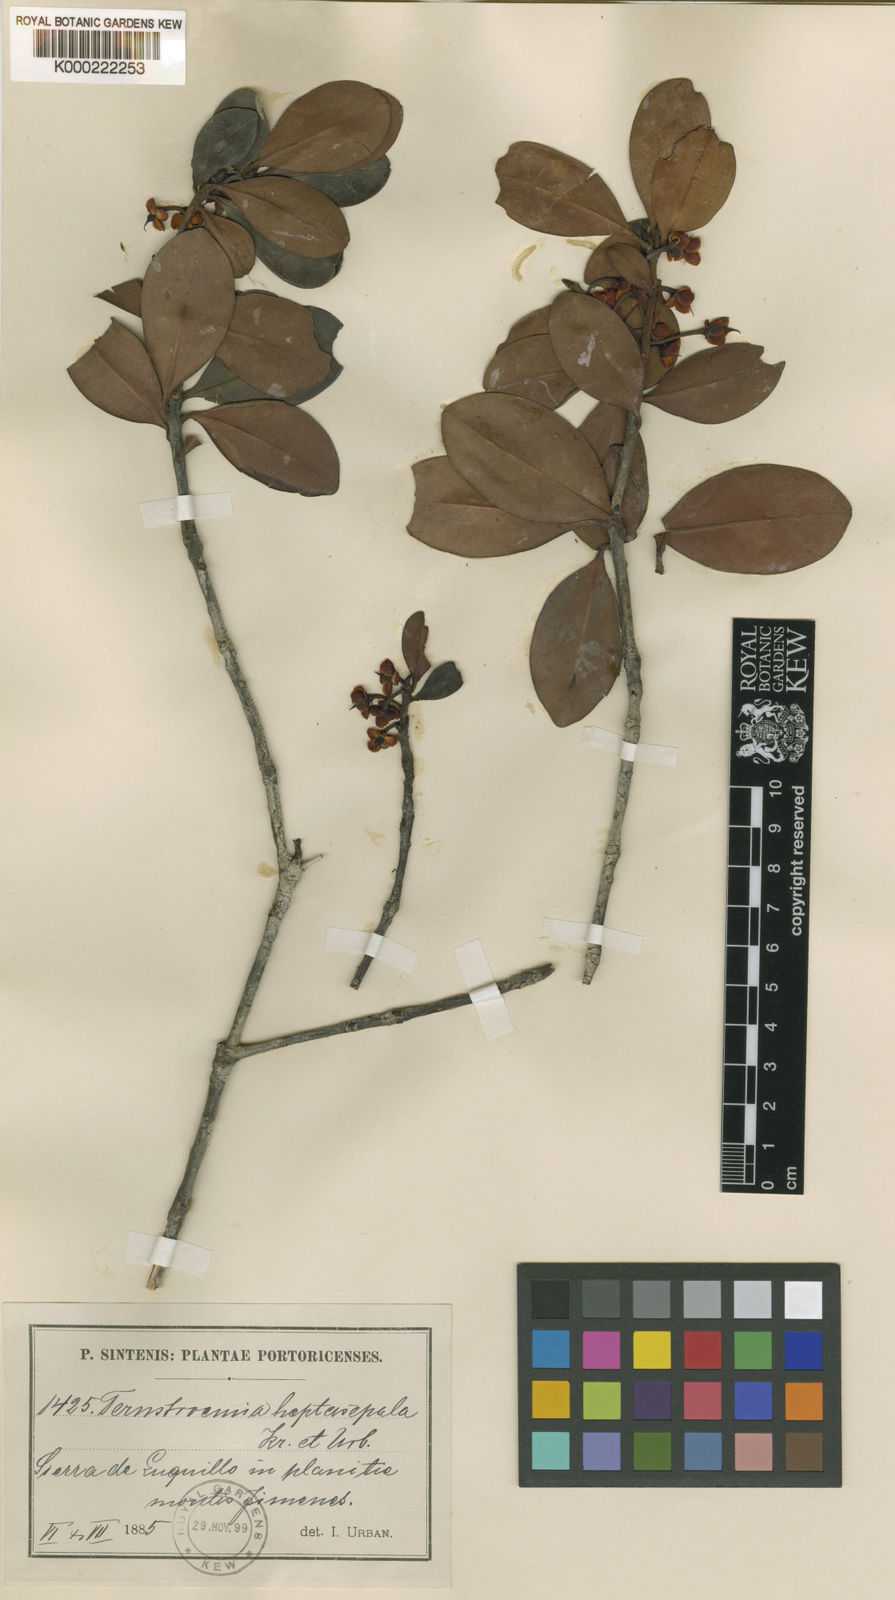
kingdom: Plantae
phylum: Tracheophyta
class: Magnoliopsida
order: Ericales
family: Pentaphylacaceae
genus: Ternstroemia
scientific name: Ternstroemia heptasepala
